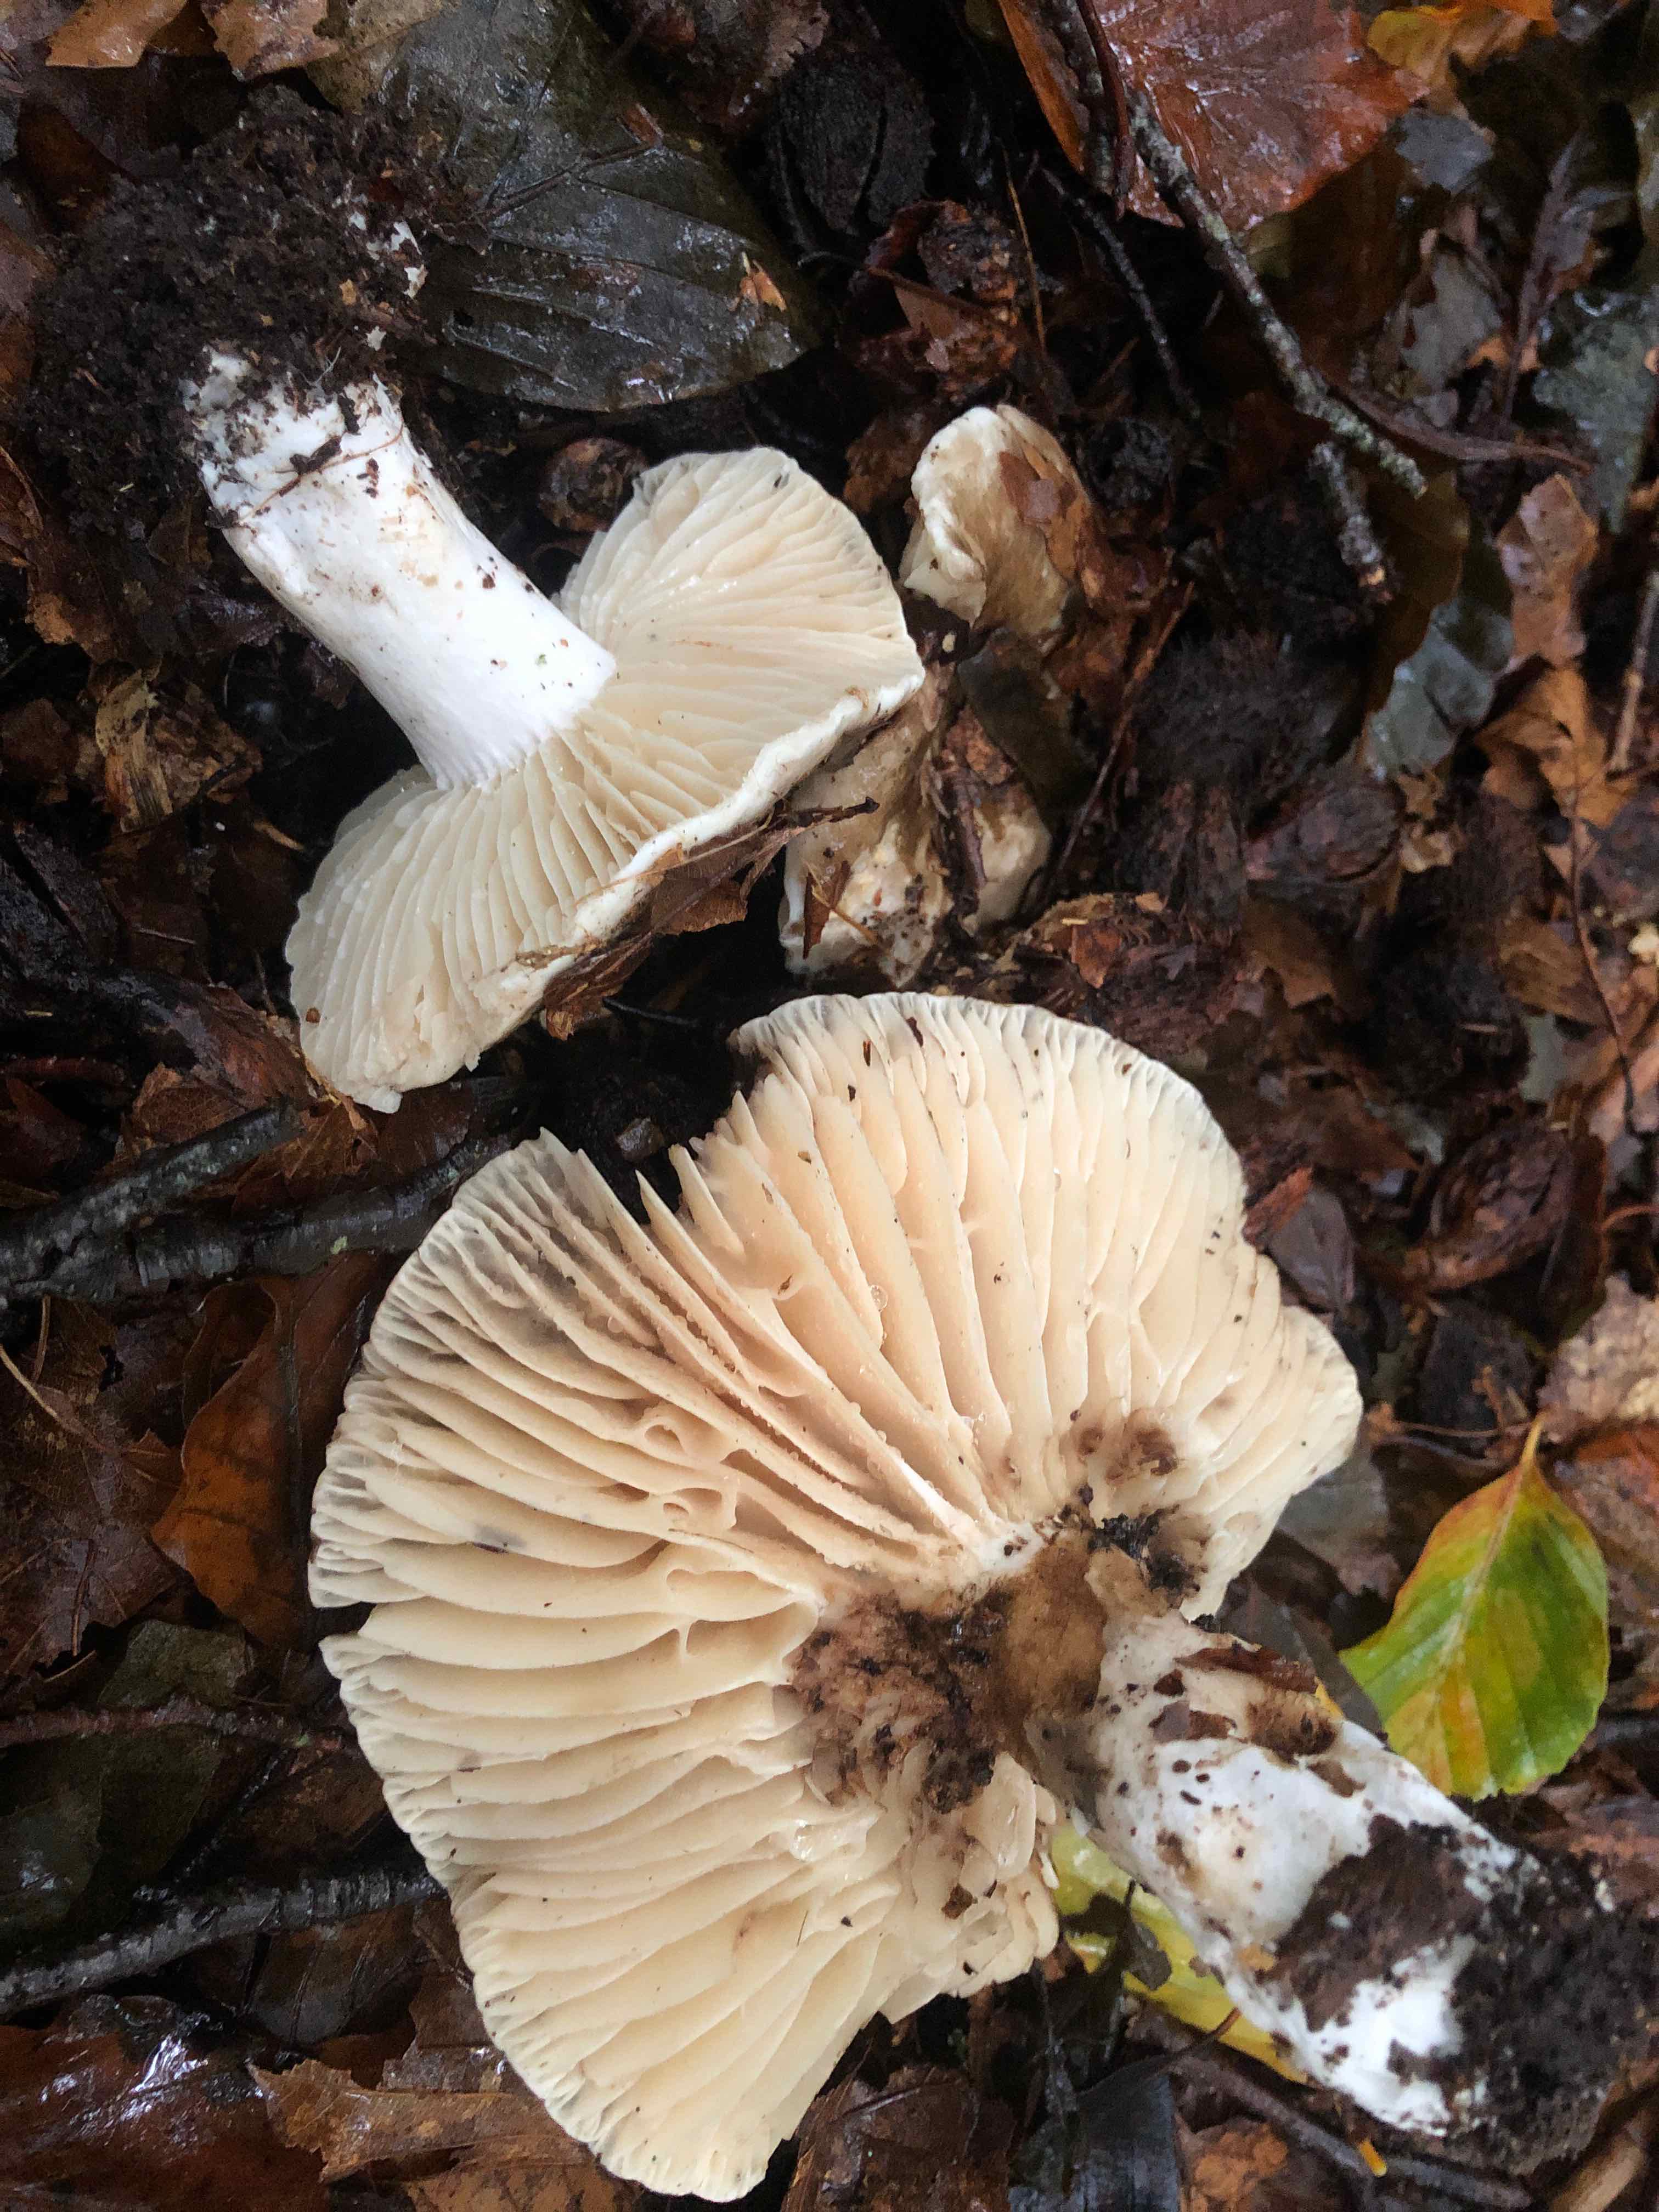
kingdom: Fungi
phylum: Basidiomycota
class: Agaricomycetes
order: Russulales
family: Russulaceae
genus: Russula
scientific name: Russula adusta
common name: sværtende skørhat
